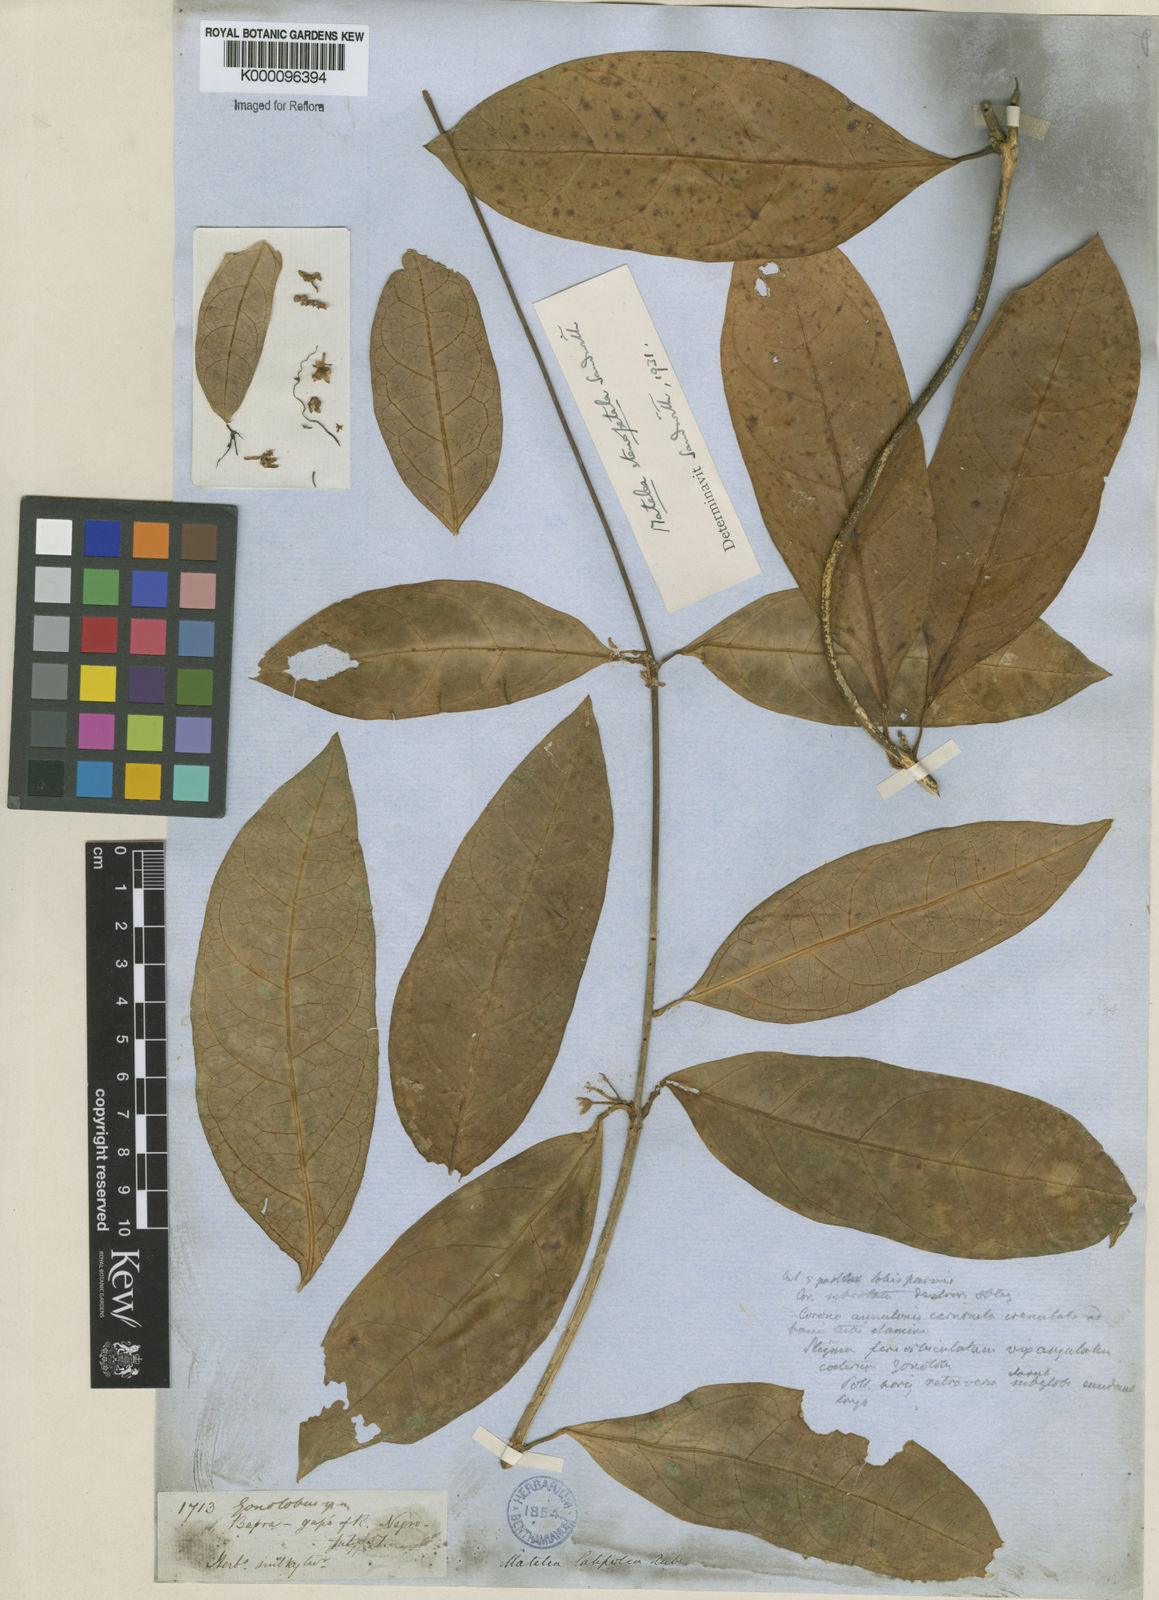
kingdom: Plantae
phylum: Tracheophyta
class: Magnoliopsida
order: Gentianales
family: Apocynaceae
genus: Matelea
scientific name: Matelea stenopetala
